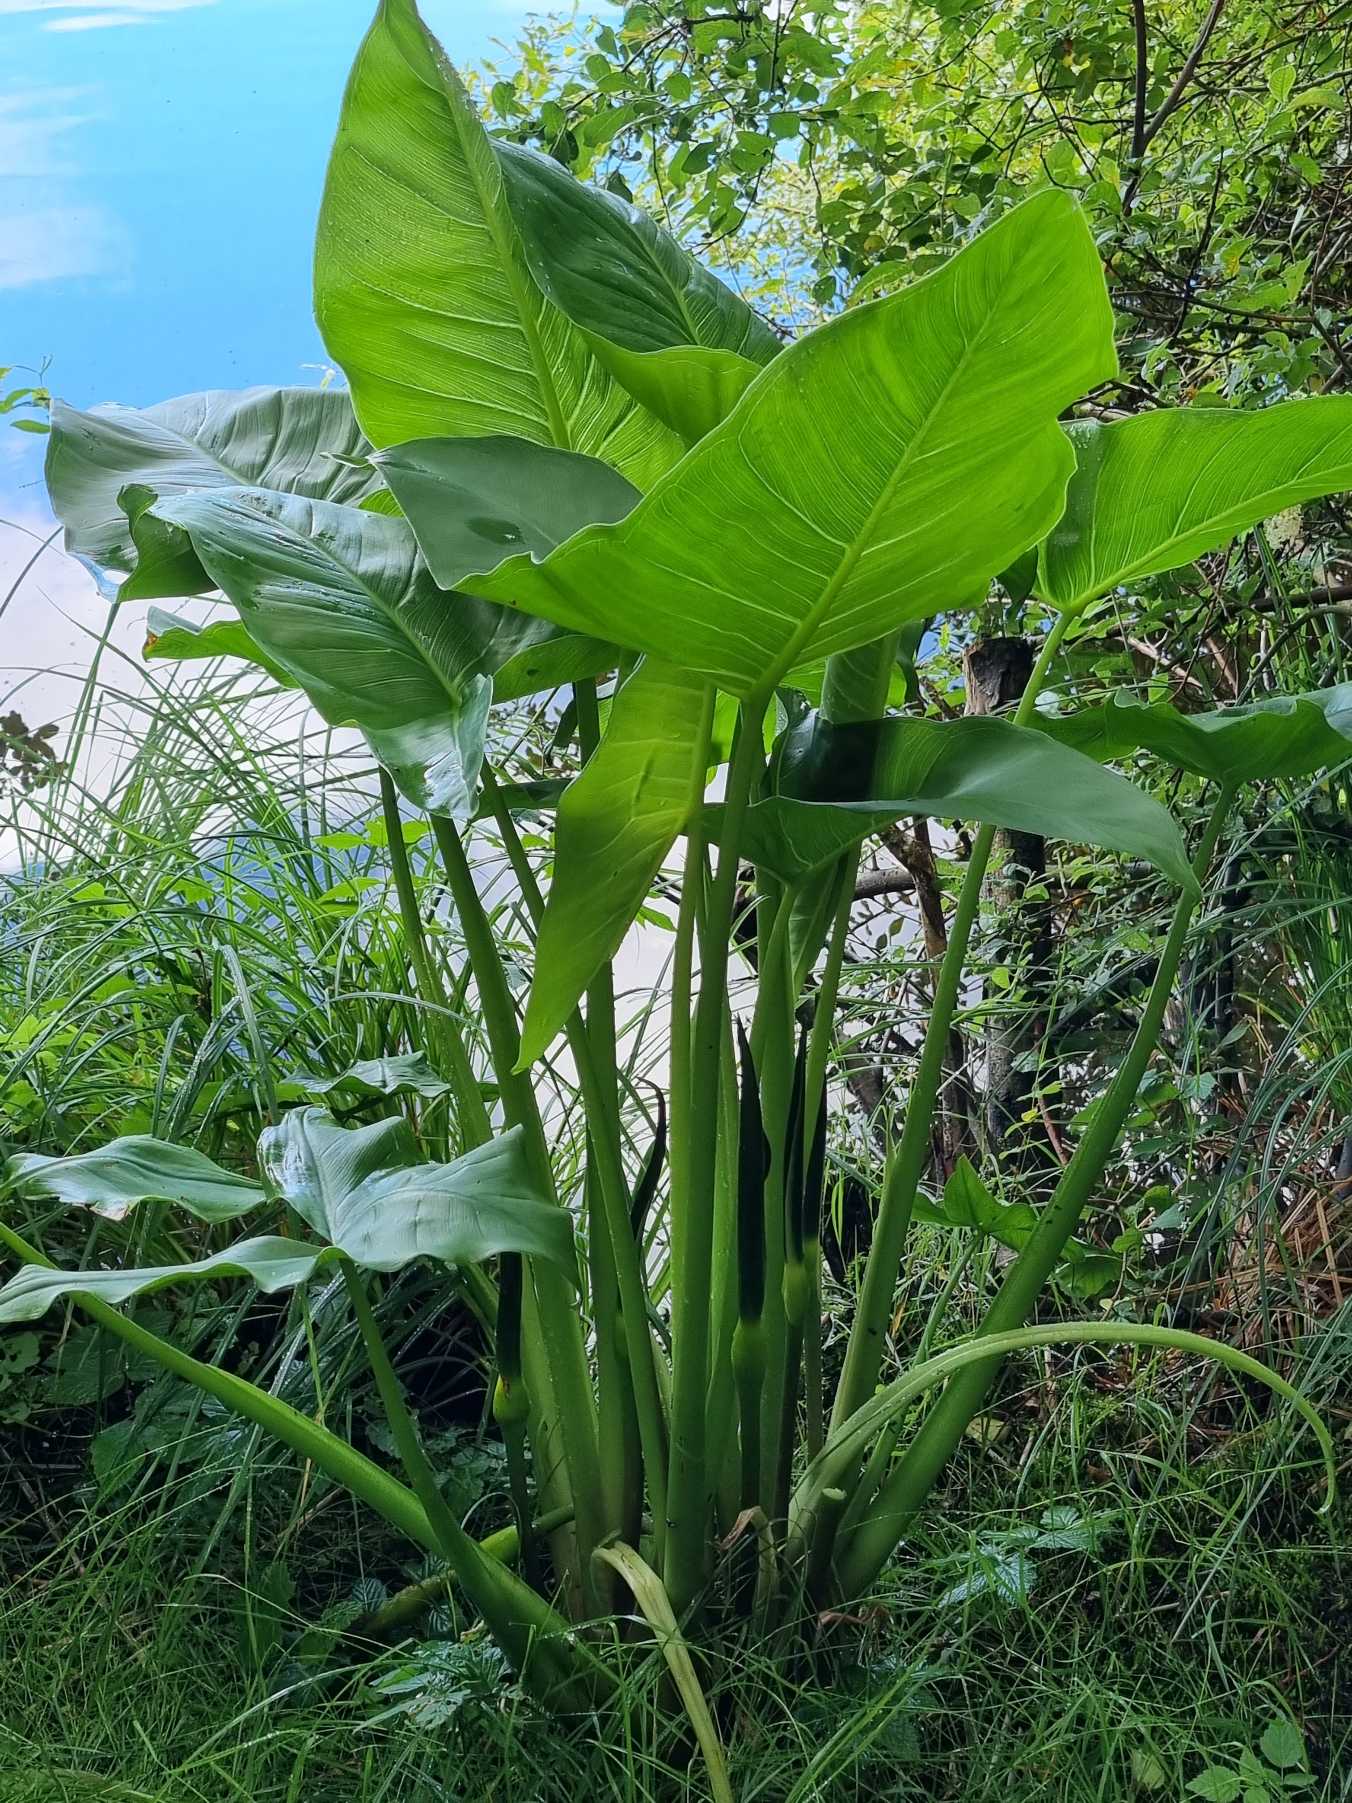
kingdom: Plantae
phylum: Tracheophyta
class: Liliopsida
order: Alismatales
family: Araceae
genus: Peltandra
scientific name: Peltandra virginica
